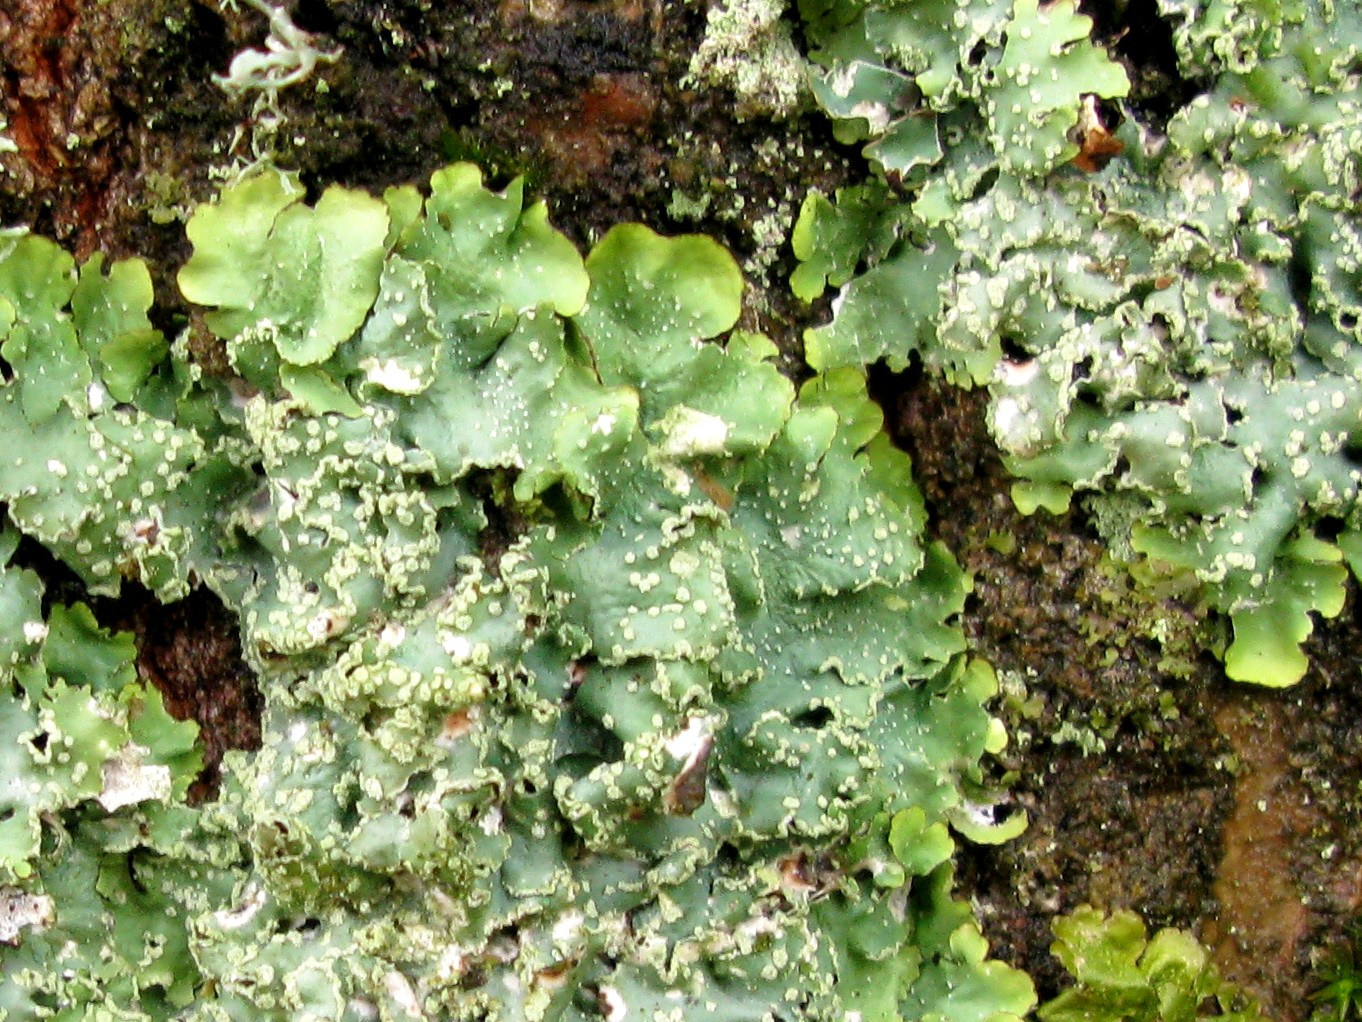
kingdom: Fungi
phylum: Ascomycota
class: Lecanoromycetes
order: Lecanorales
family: Parmeliaceae
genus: Punctelia
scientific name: Punctelia subrudecta
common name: punkt-skållav
